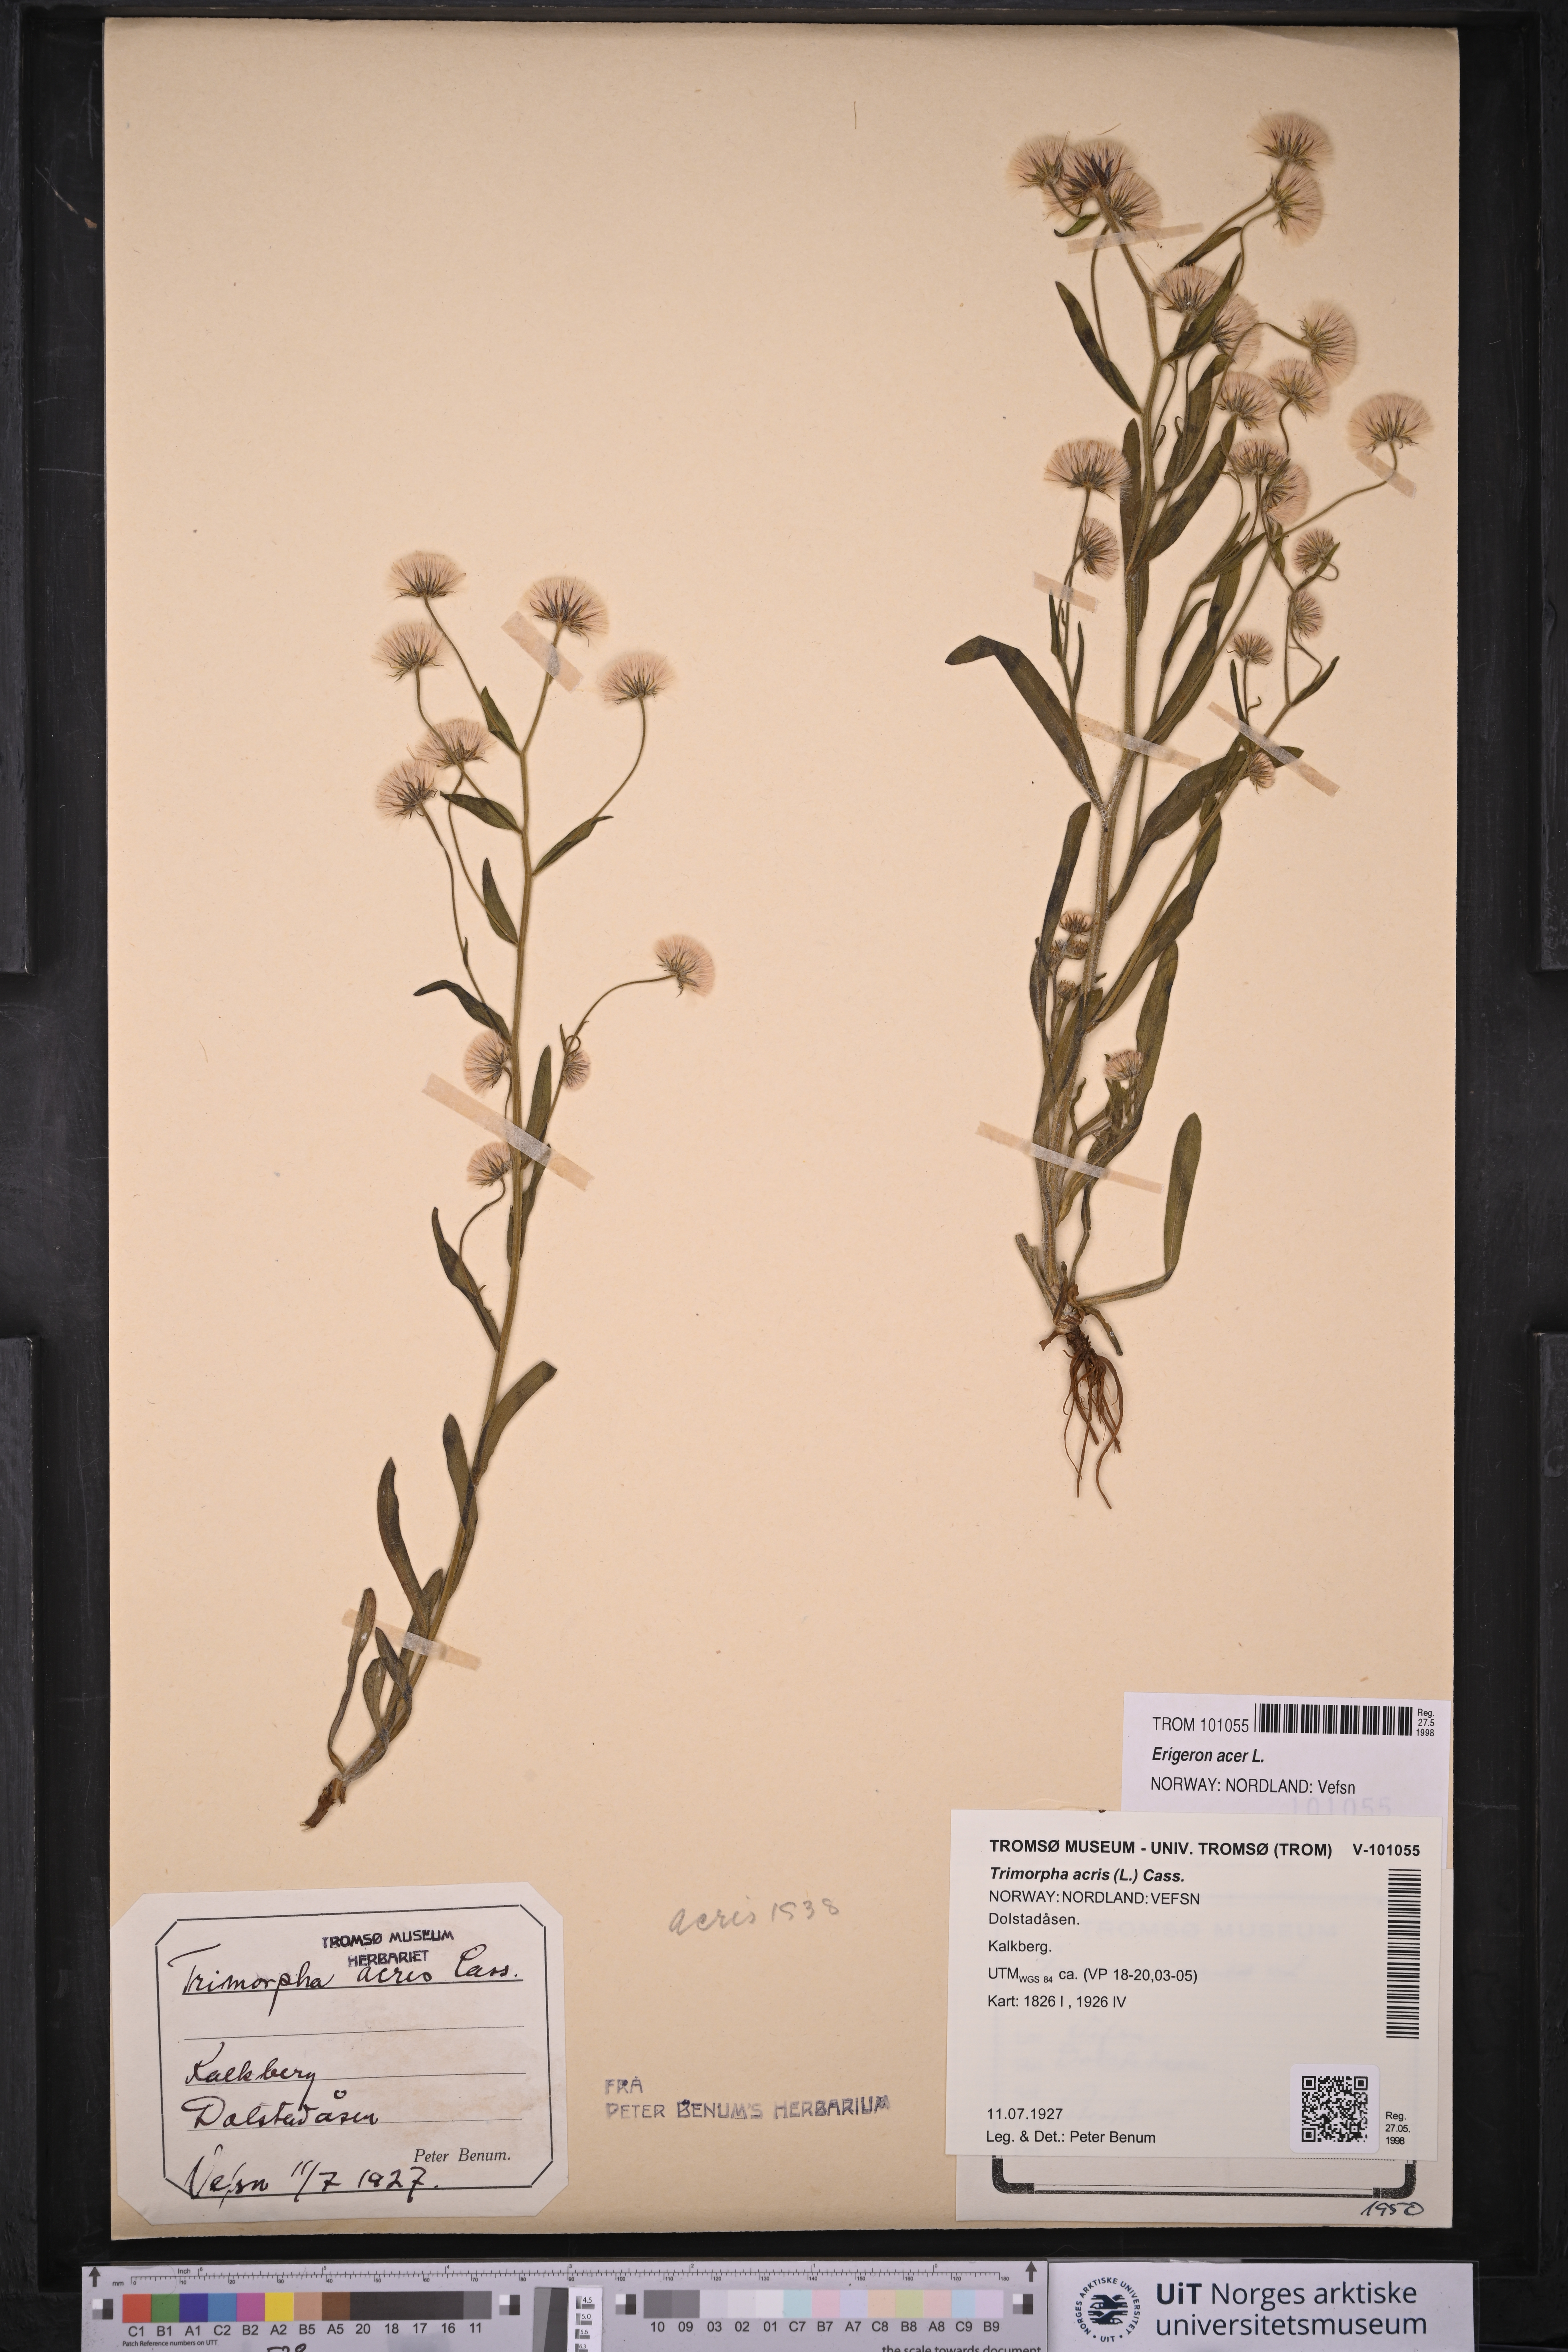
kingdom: Plantae
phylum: Tracheophyta
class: Magnoliopsida
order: Asterales
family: Asteraceae
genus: Erigeron
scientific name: Erigeron acris
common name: Blue fleabane
